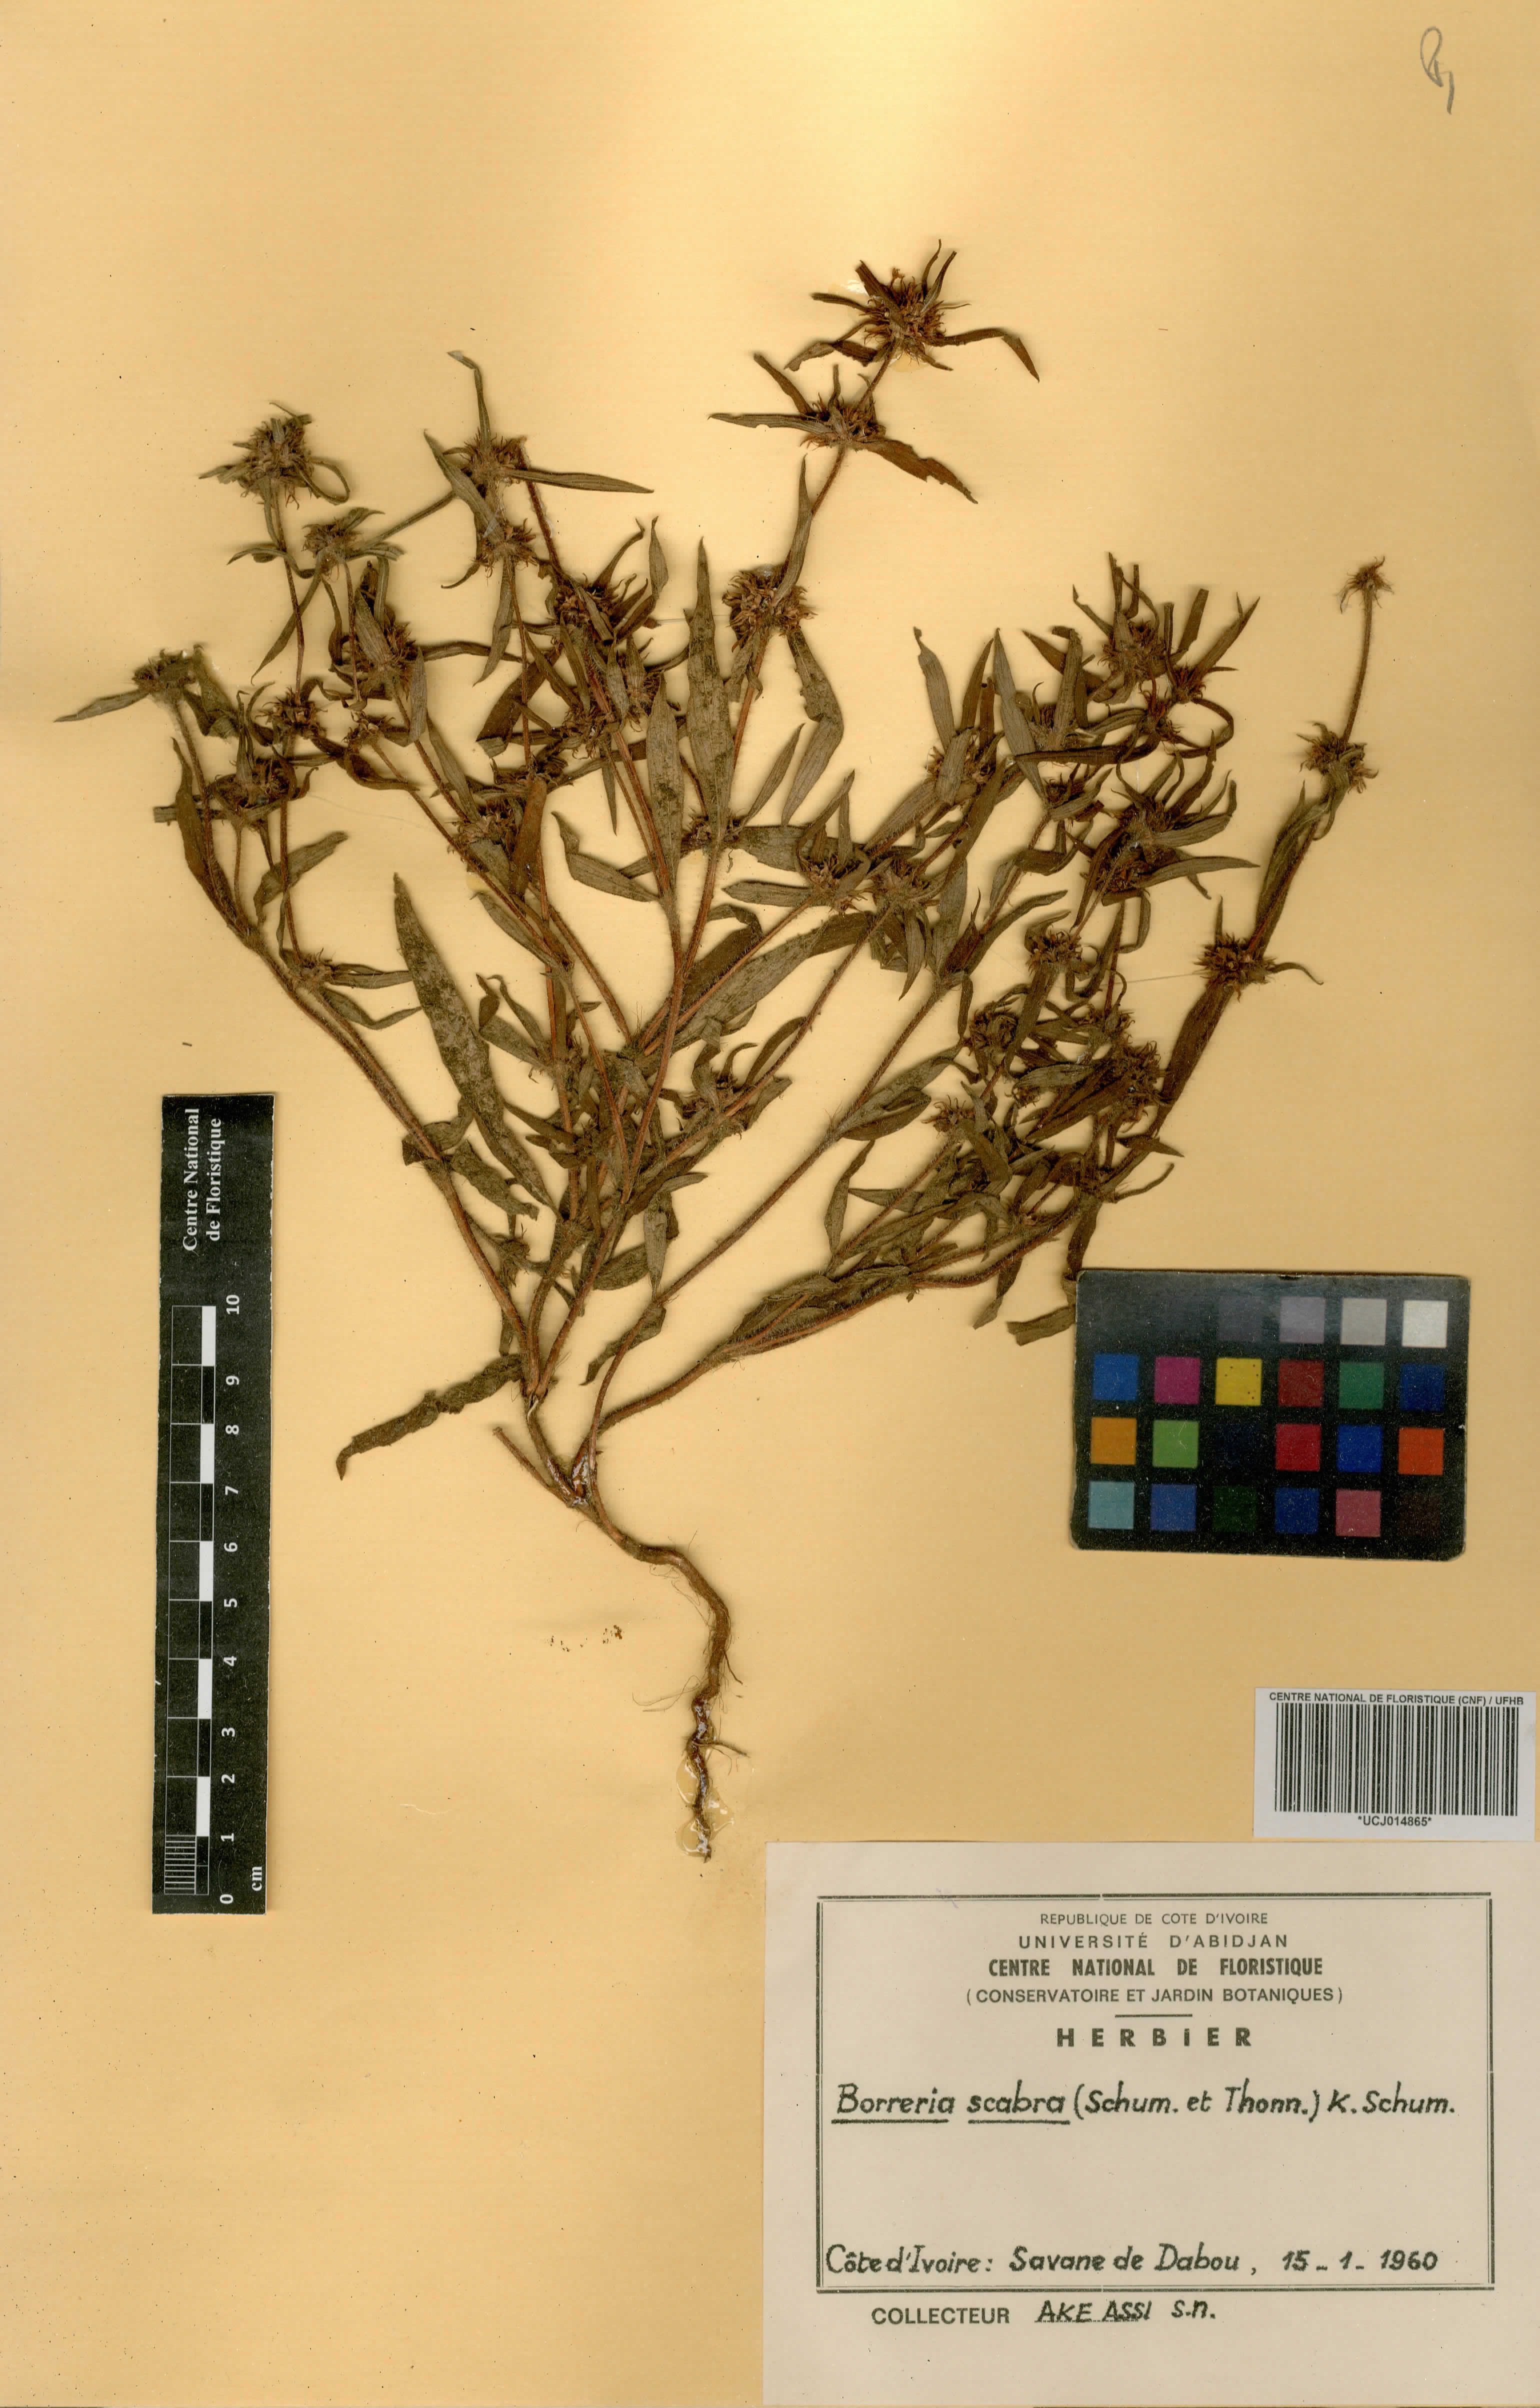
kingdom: Plantae
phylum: Tracheophyta
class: Magnoliopsida
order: Gentianales
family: Rubiaceae
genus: Spermacoce
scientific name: Spermacoce ruelliae
